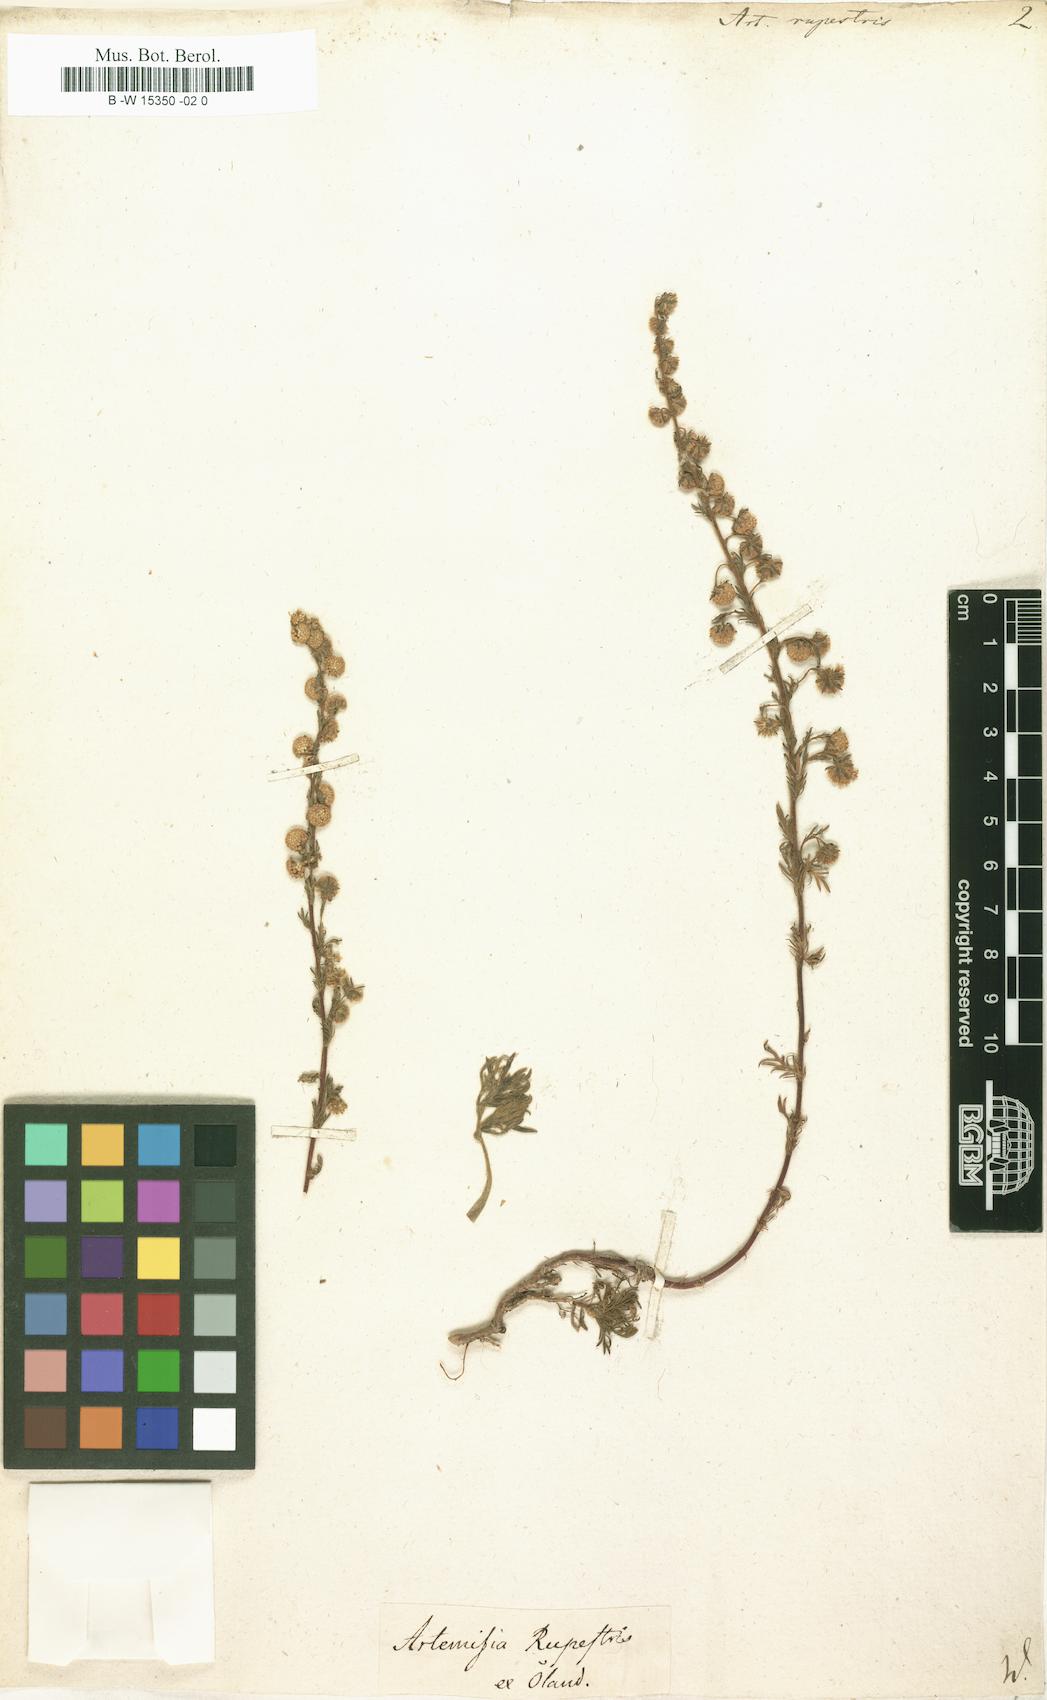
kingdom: Plantae
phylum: Tracheophyta
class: Magnoliopsida
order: Asterales
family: Asteraceae
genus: Artemisia
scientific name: Artemisia rupestris
